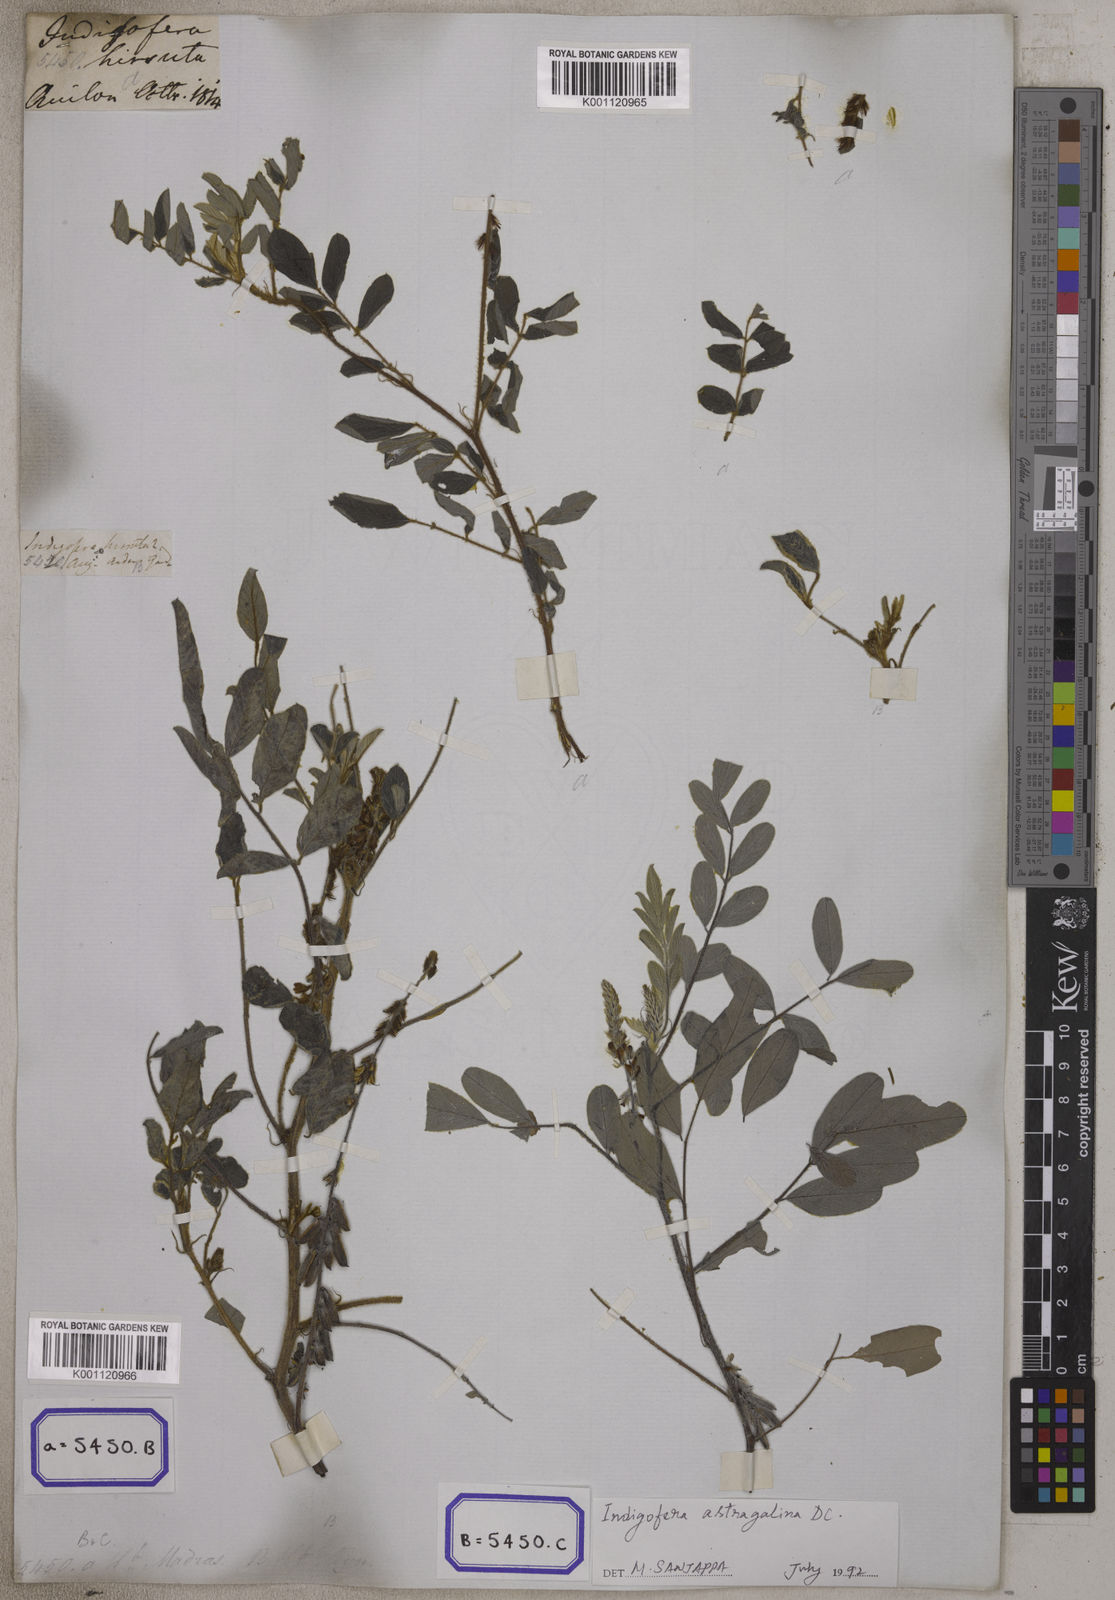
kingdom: Plantae
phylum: Tracheophyta
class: Magnoliopsida
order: Fabales
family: Fabaceae
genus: Indigofera
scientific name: Indigofera hirsuta
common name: Hairy indigo
